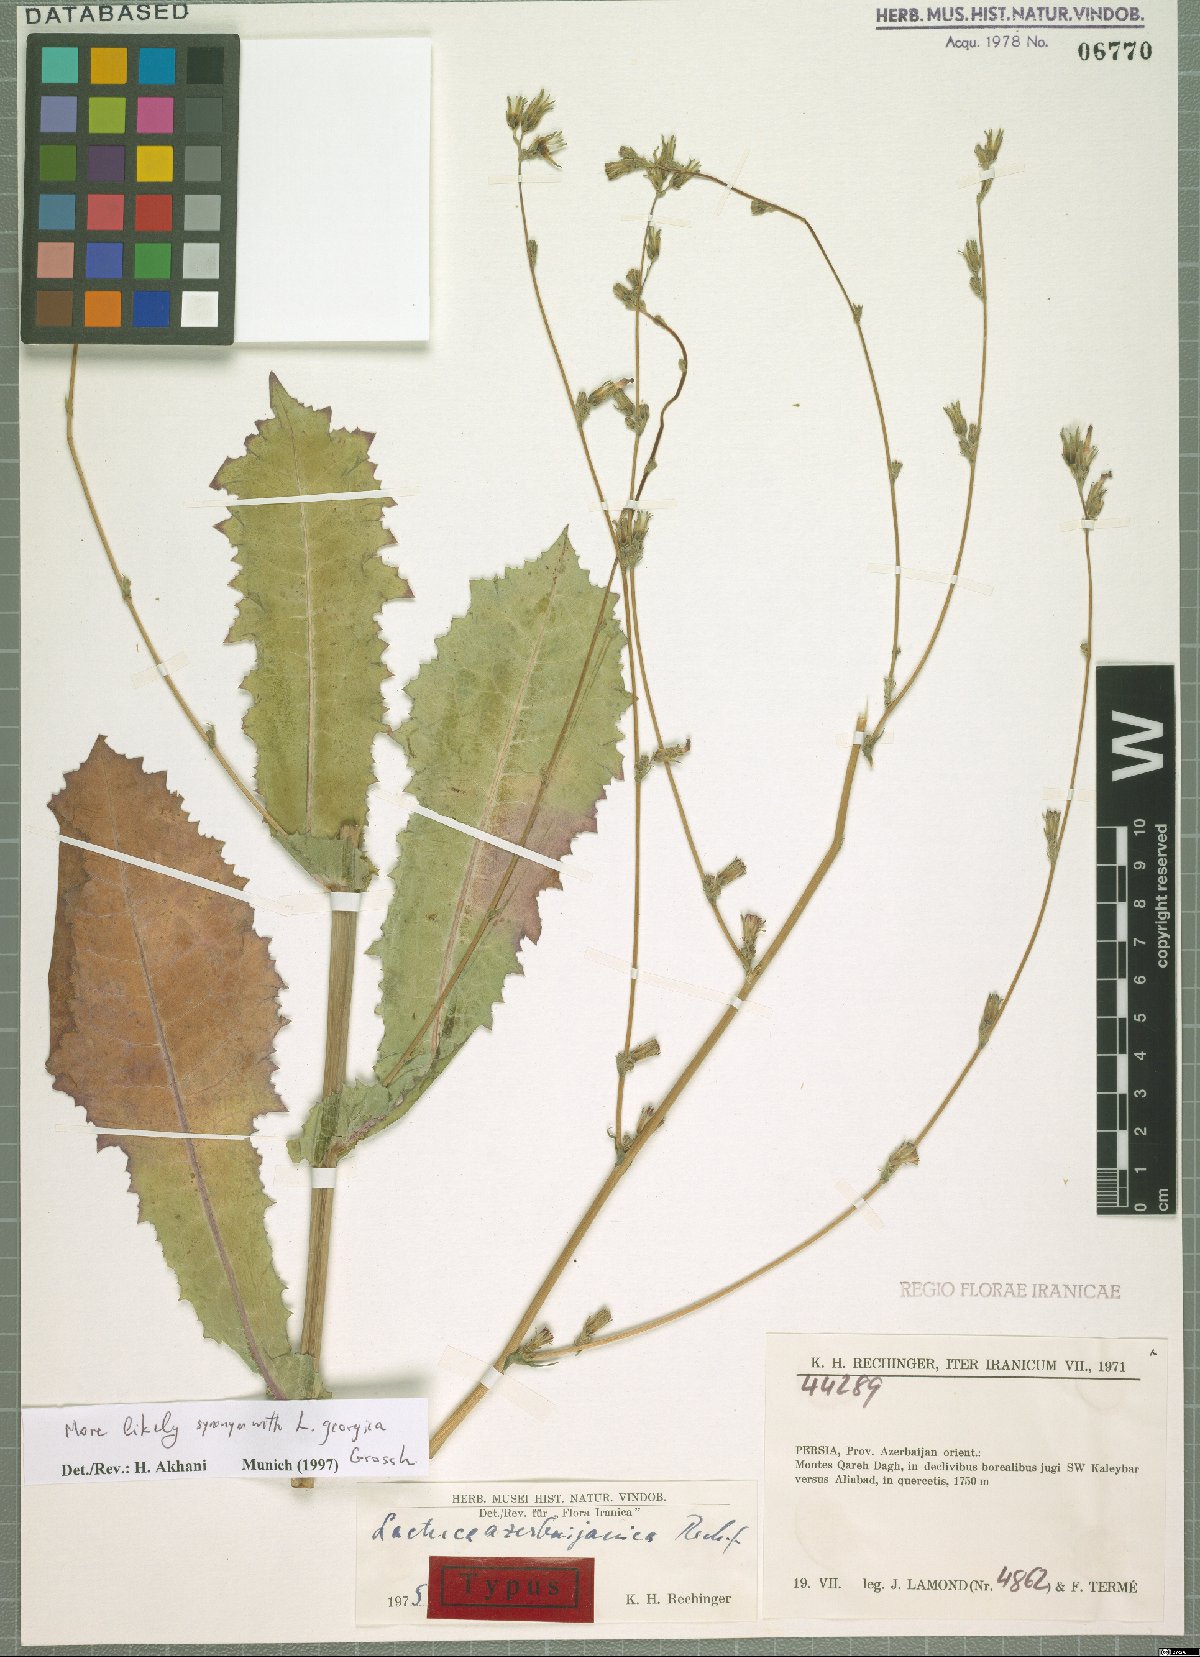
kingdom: Plantae
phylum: Tracheophyta
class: Magnoliopsida
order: Asterales
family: Asteraceae
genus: Lactuca
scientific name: Lactuca azerbaijanica
